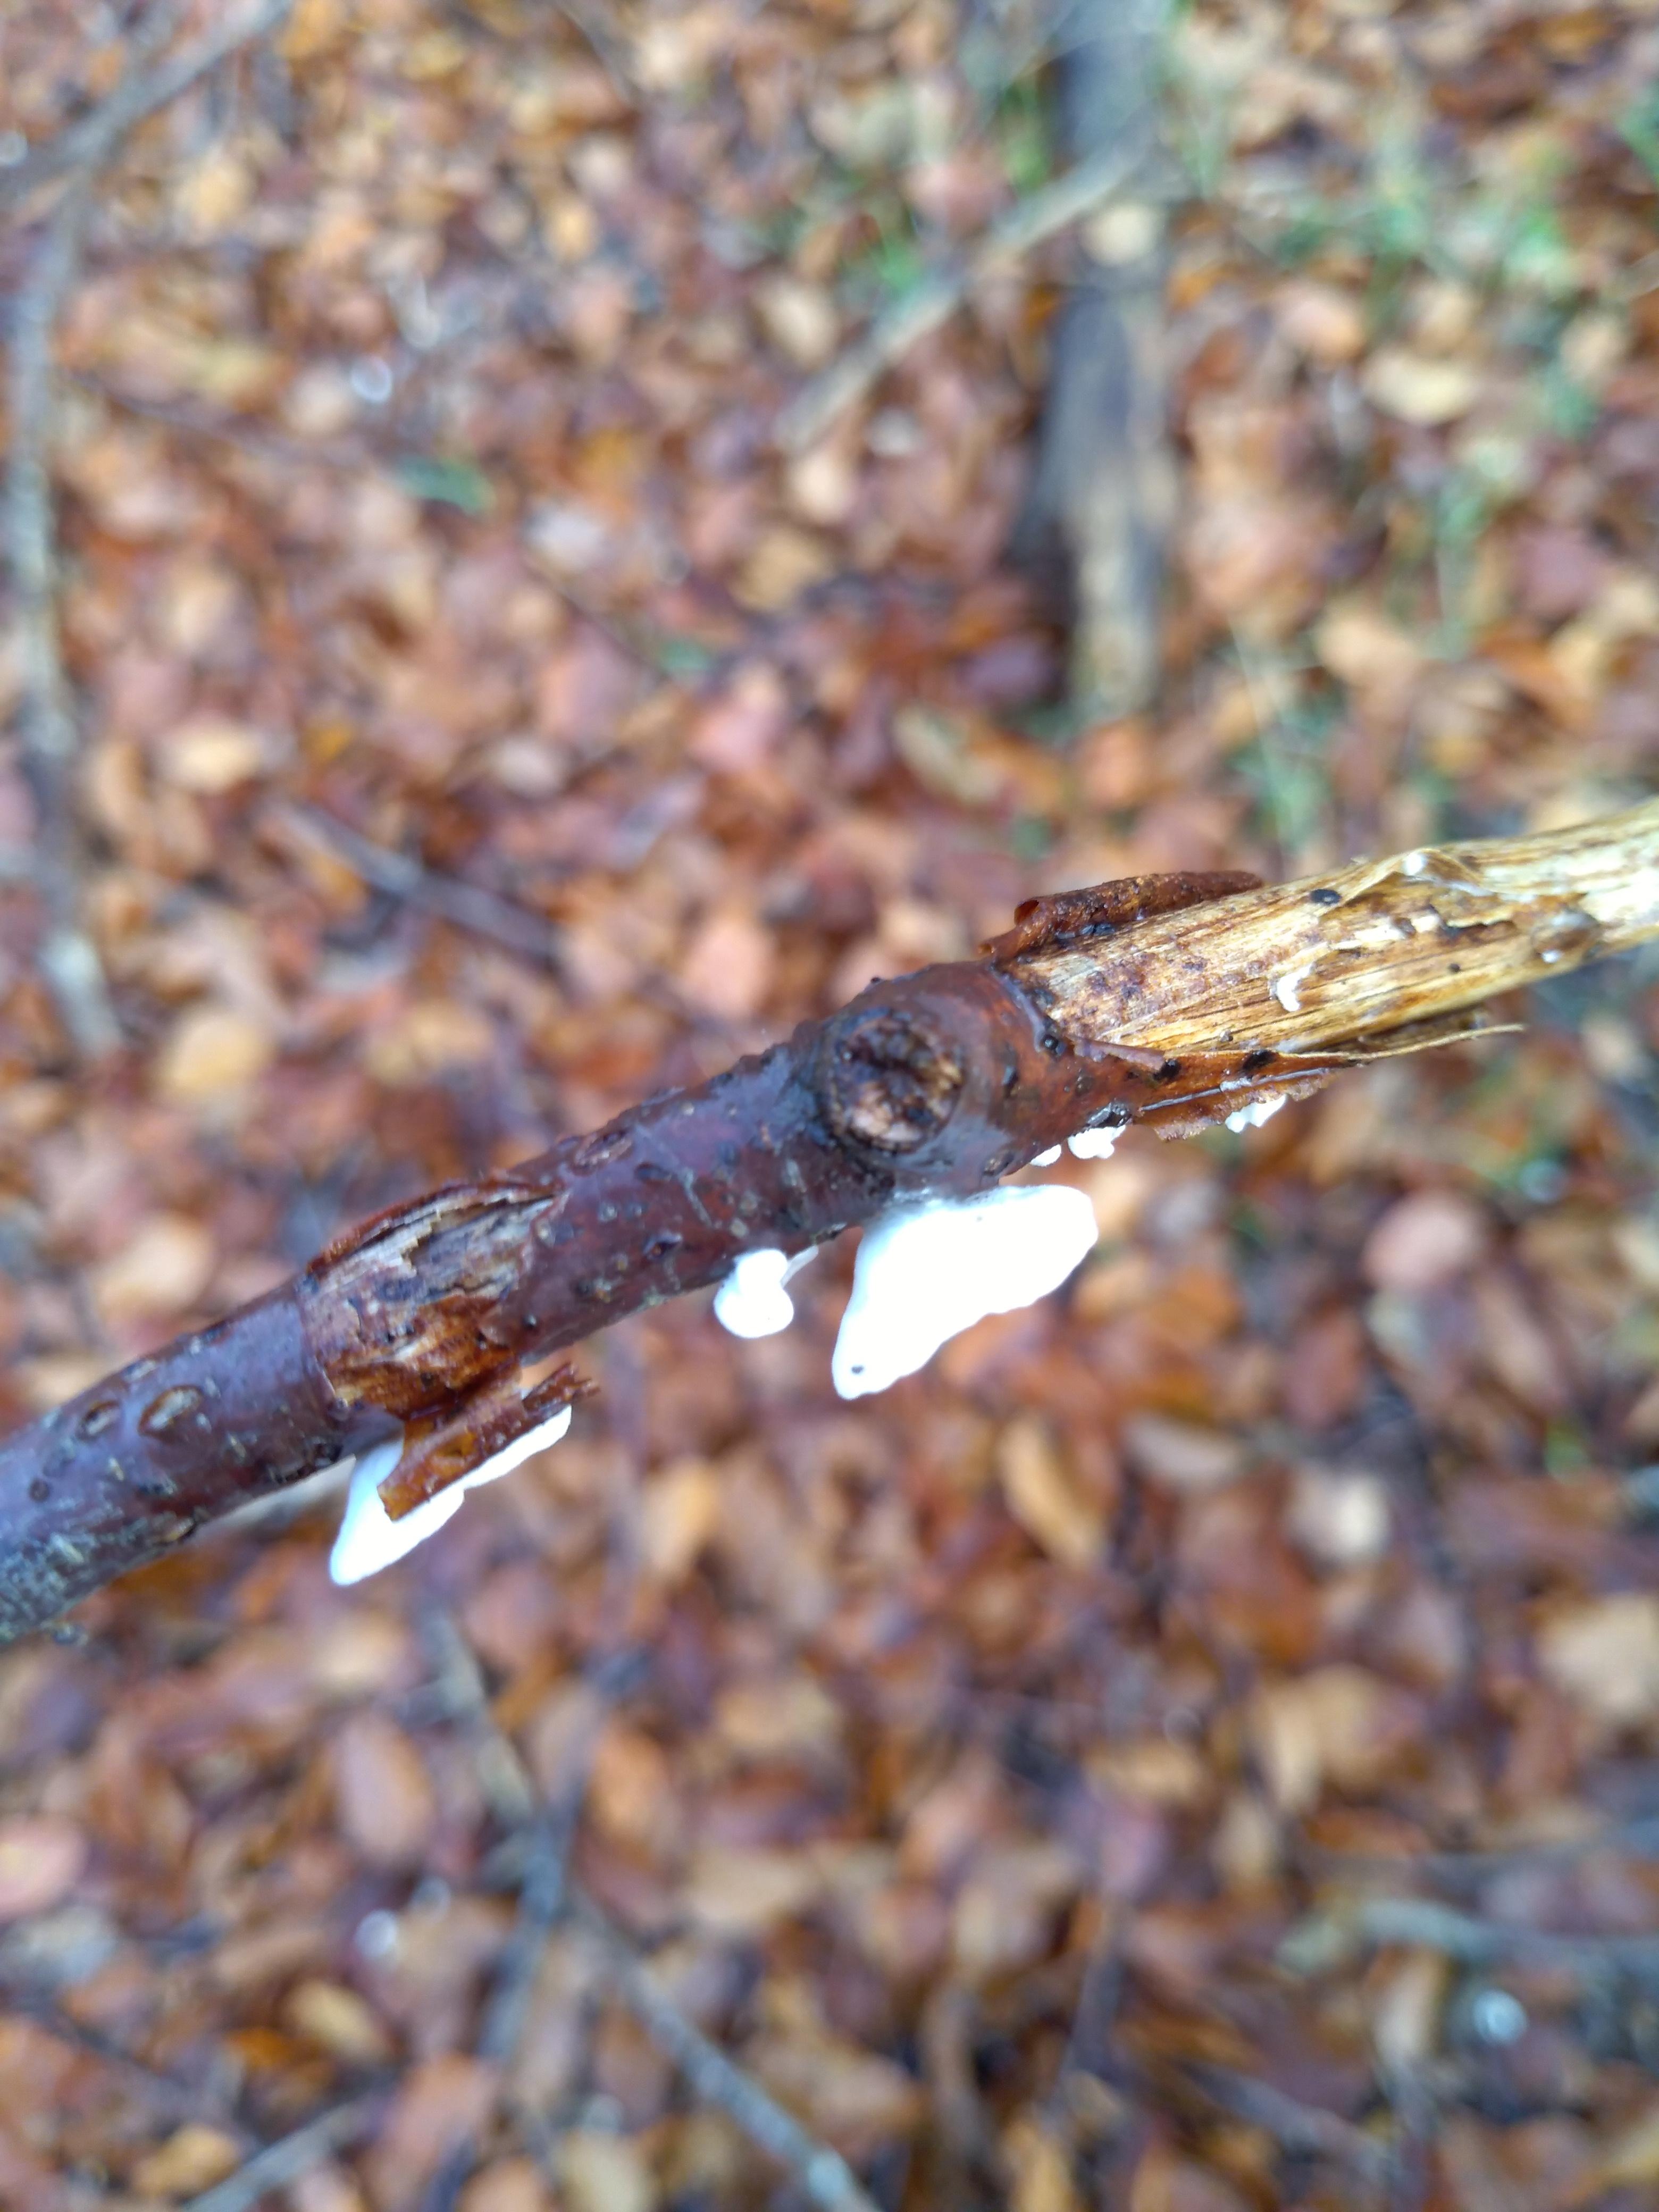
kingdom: Fungi
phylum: Basidiomycota
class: Agaricomycetes
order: Agaricales
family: Crepidotaceae
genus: Crepidotus
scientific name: Crepidotus
